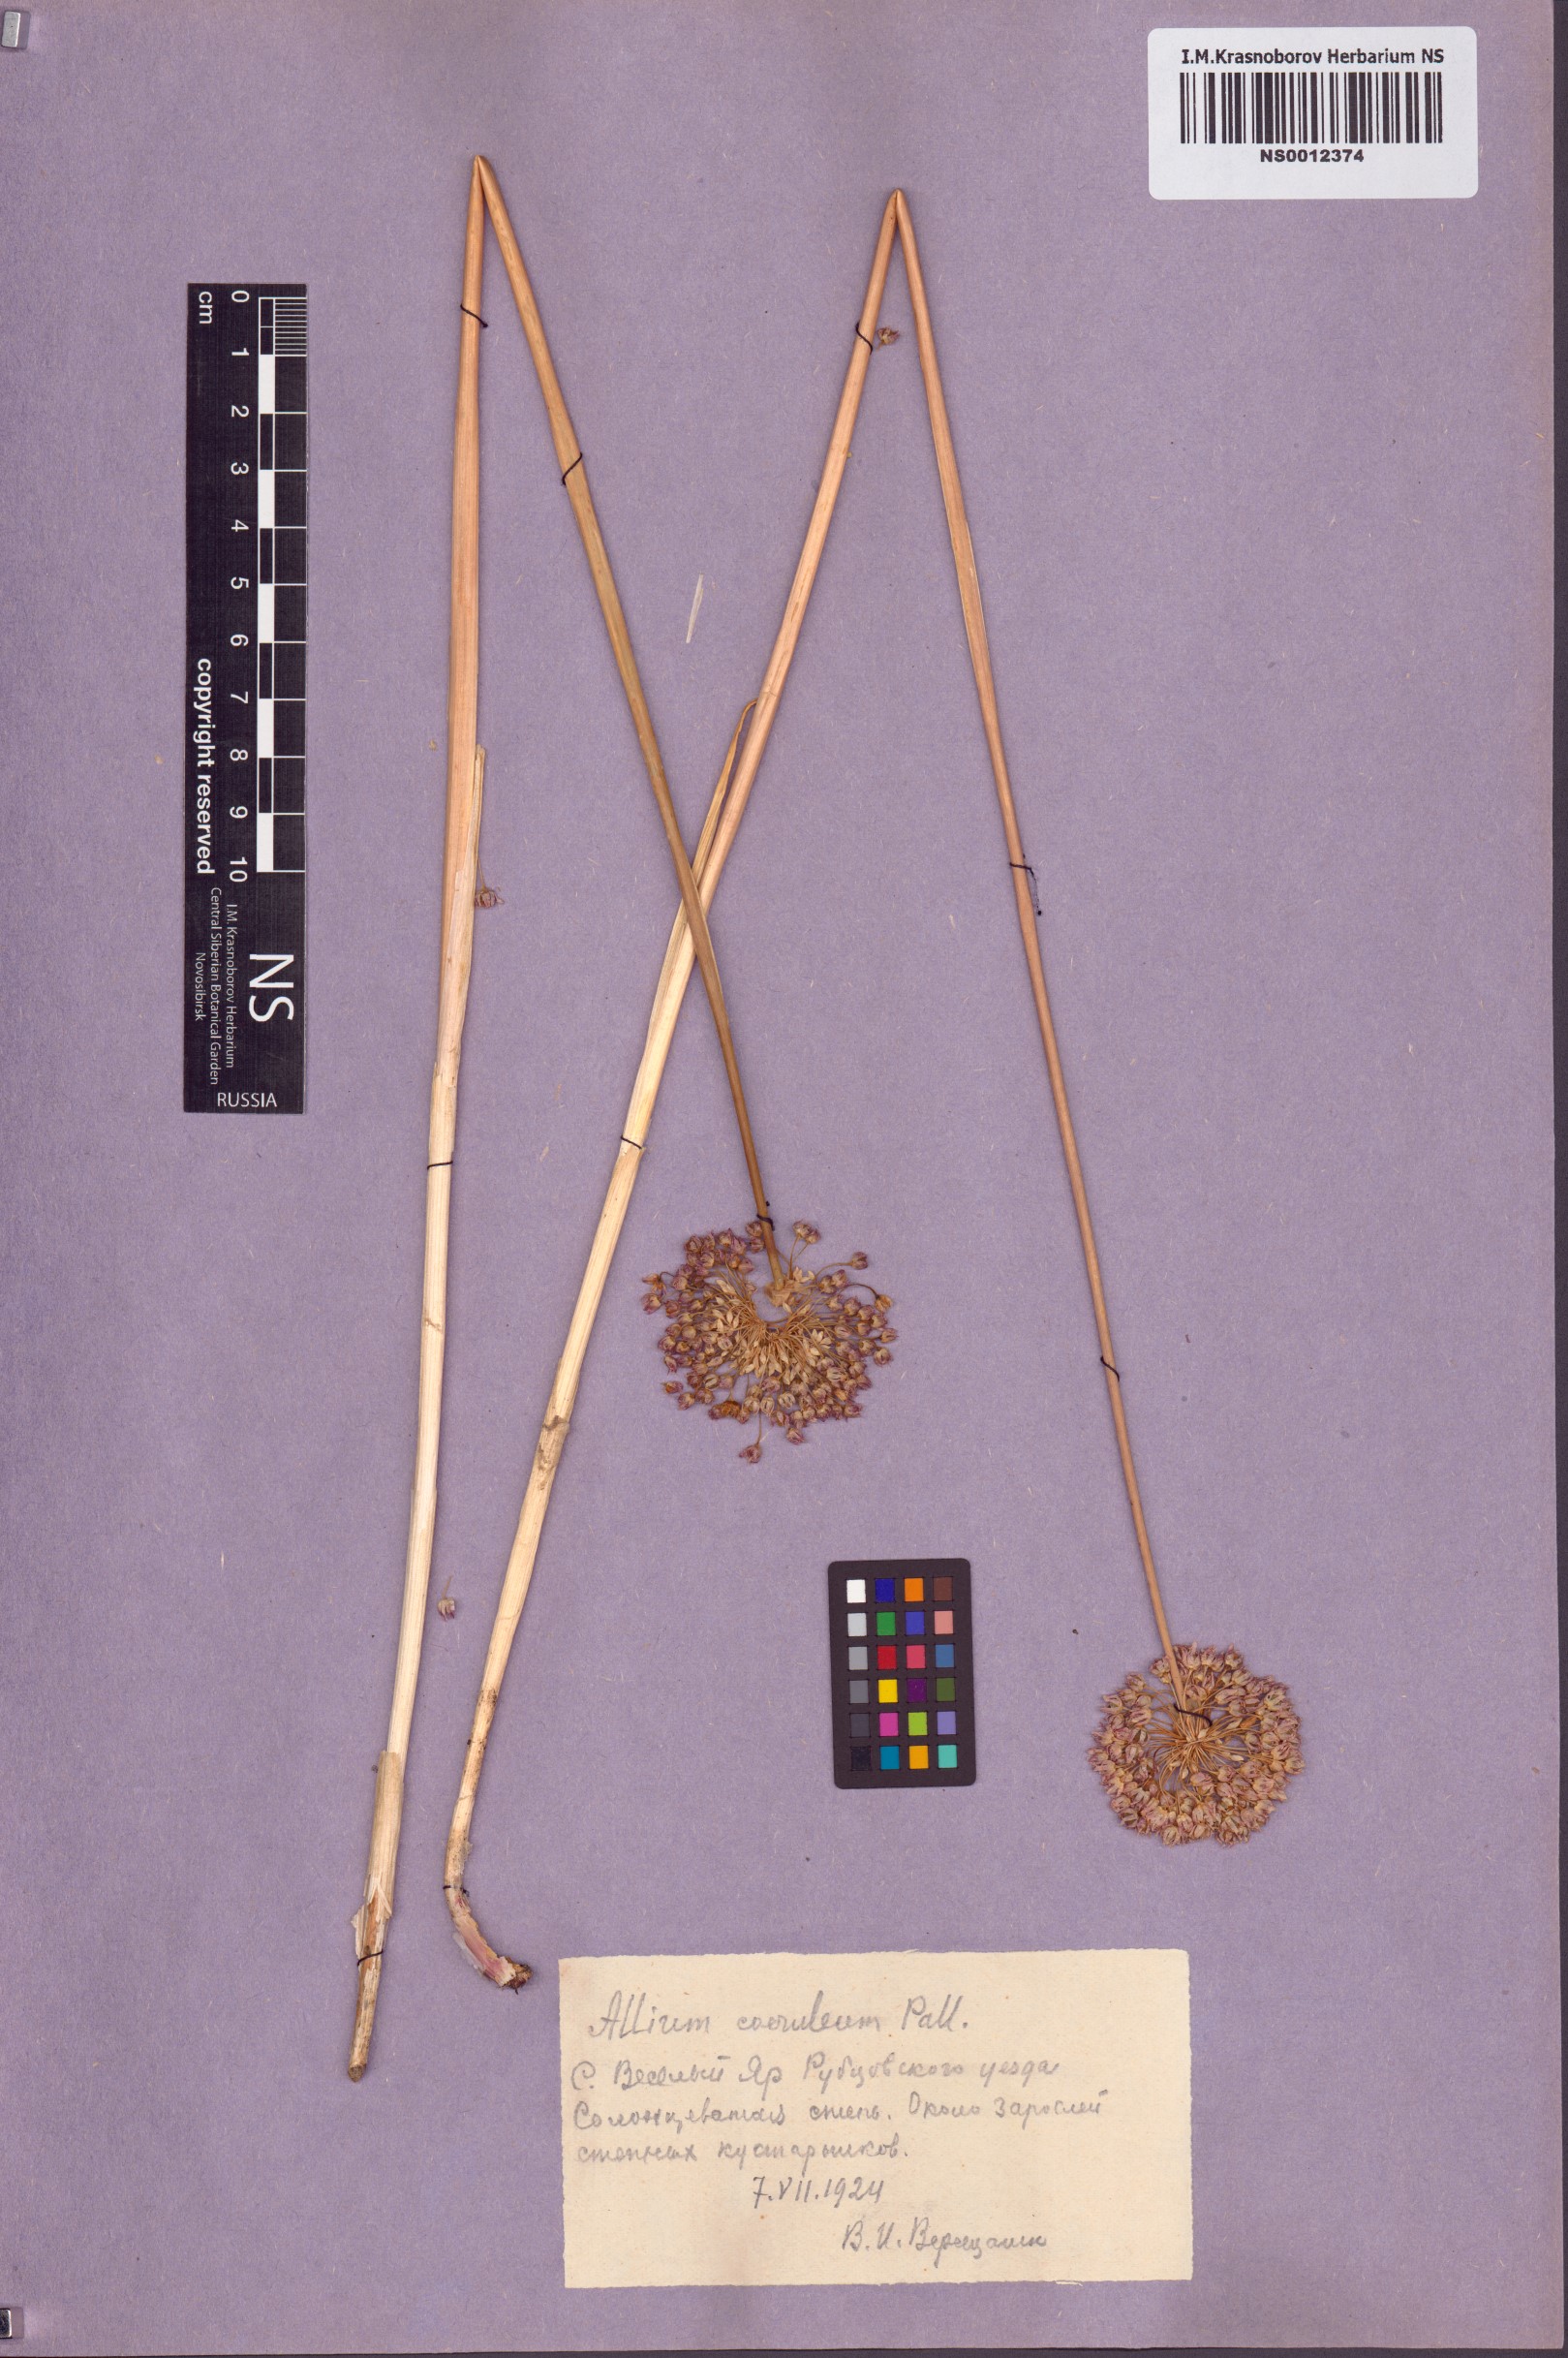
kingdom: Plantae
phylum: Tracheophyta
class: Liliopsida
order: Asparagales
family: Amaryllidaceae
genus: Allium
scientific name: Allium caeruleum
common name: Blue-of-the-heavens
